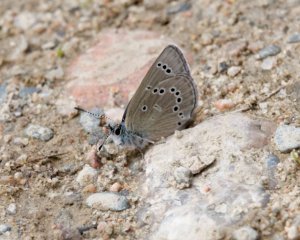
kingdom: Animalia
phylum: Arthropoda
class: Insecta
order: Lepidoptera
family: Lycaenidae
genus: Glaucopsyche
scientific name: Glaucopsyche lygdamus
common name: Silvery Blue
